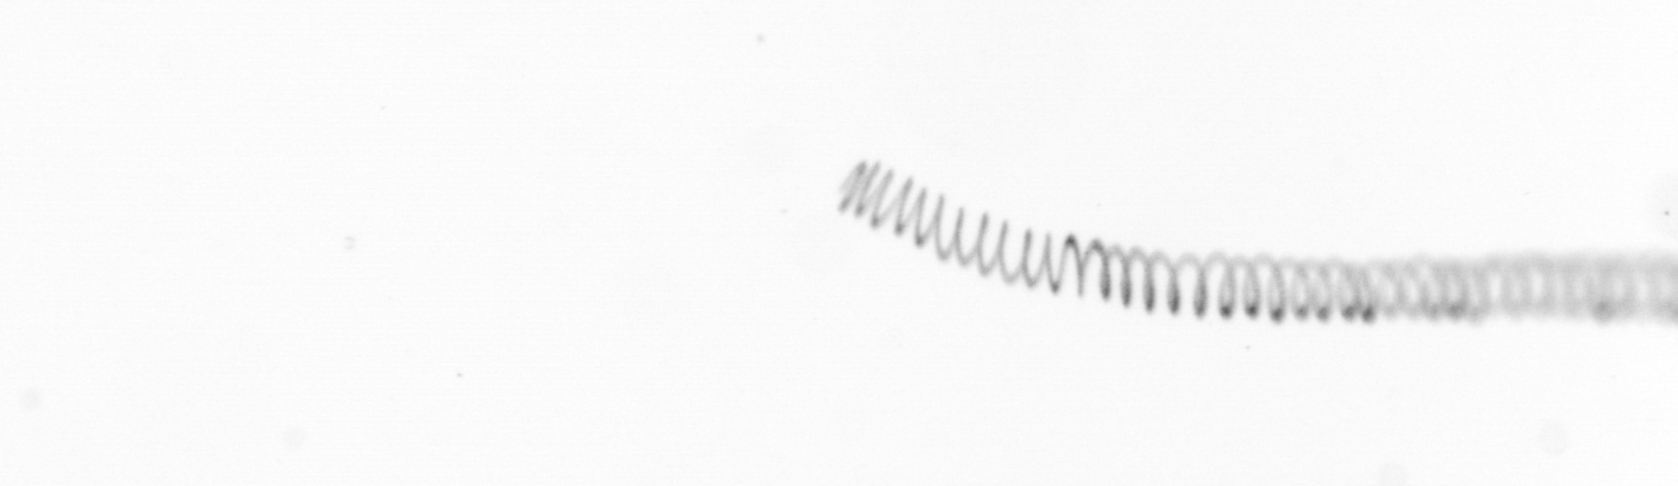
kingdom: Chromista
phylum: Ochrophyta
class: Bacillariophyceae
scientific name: Bacillariophyceae
